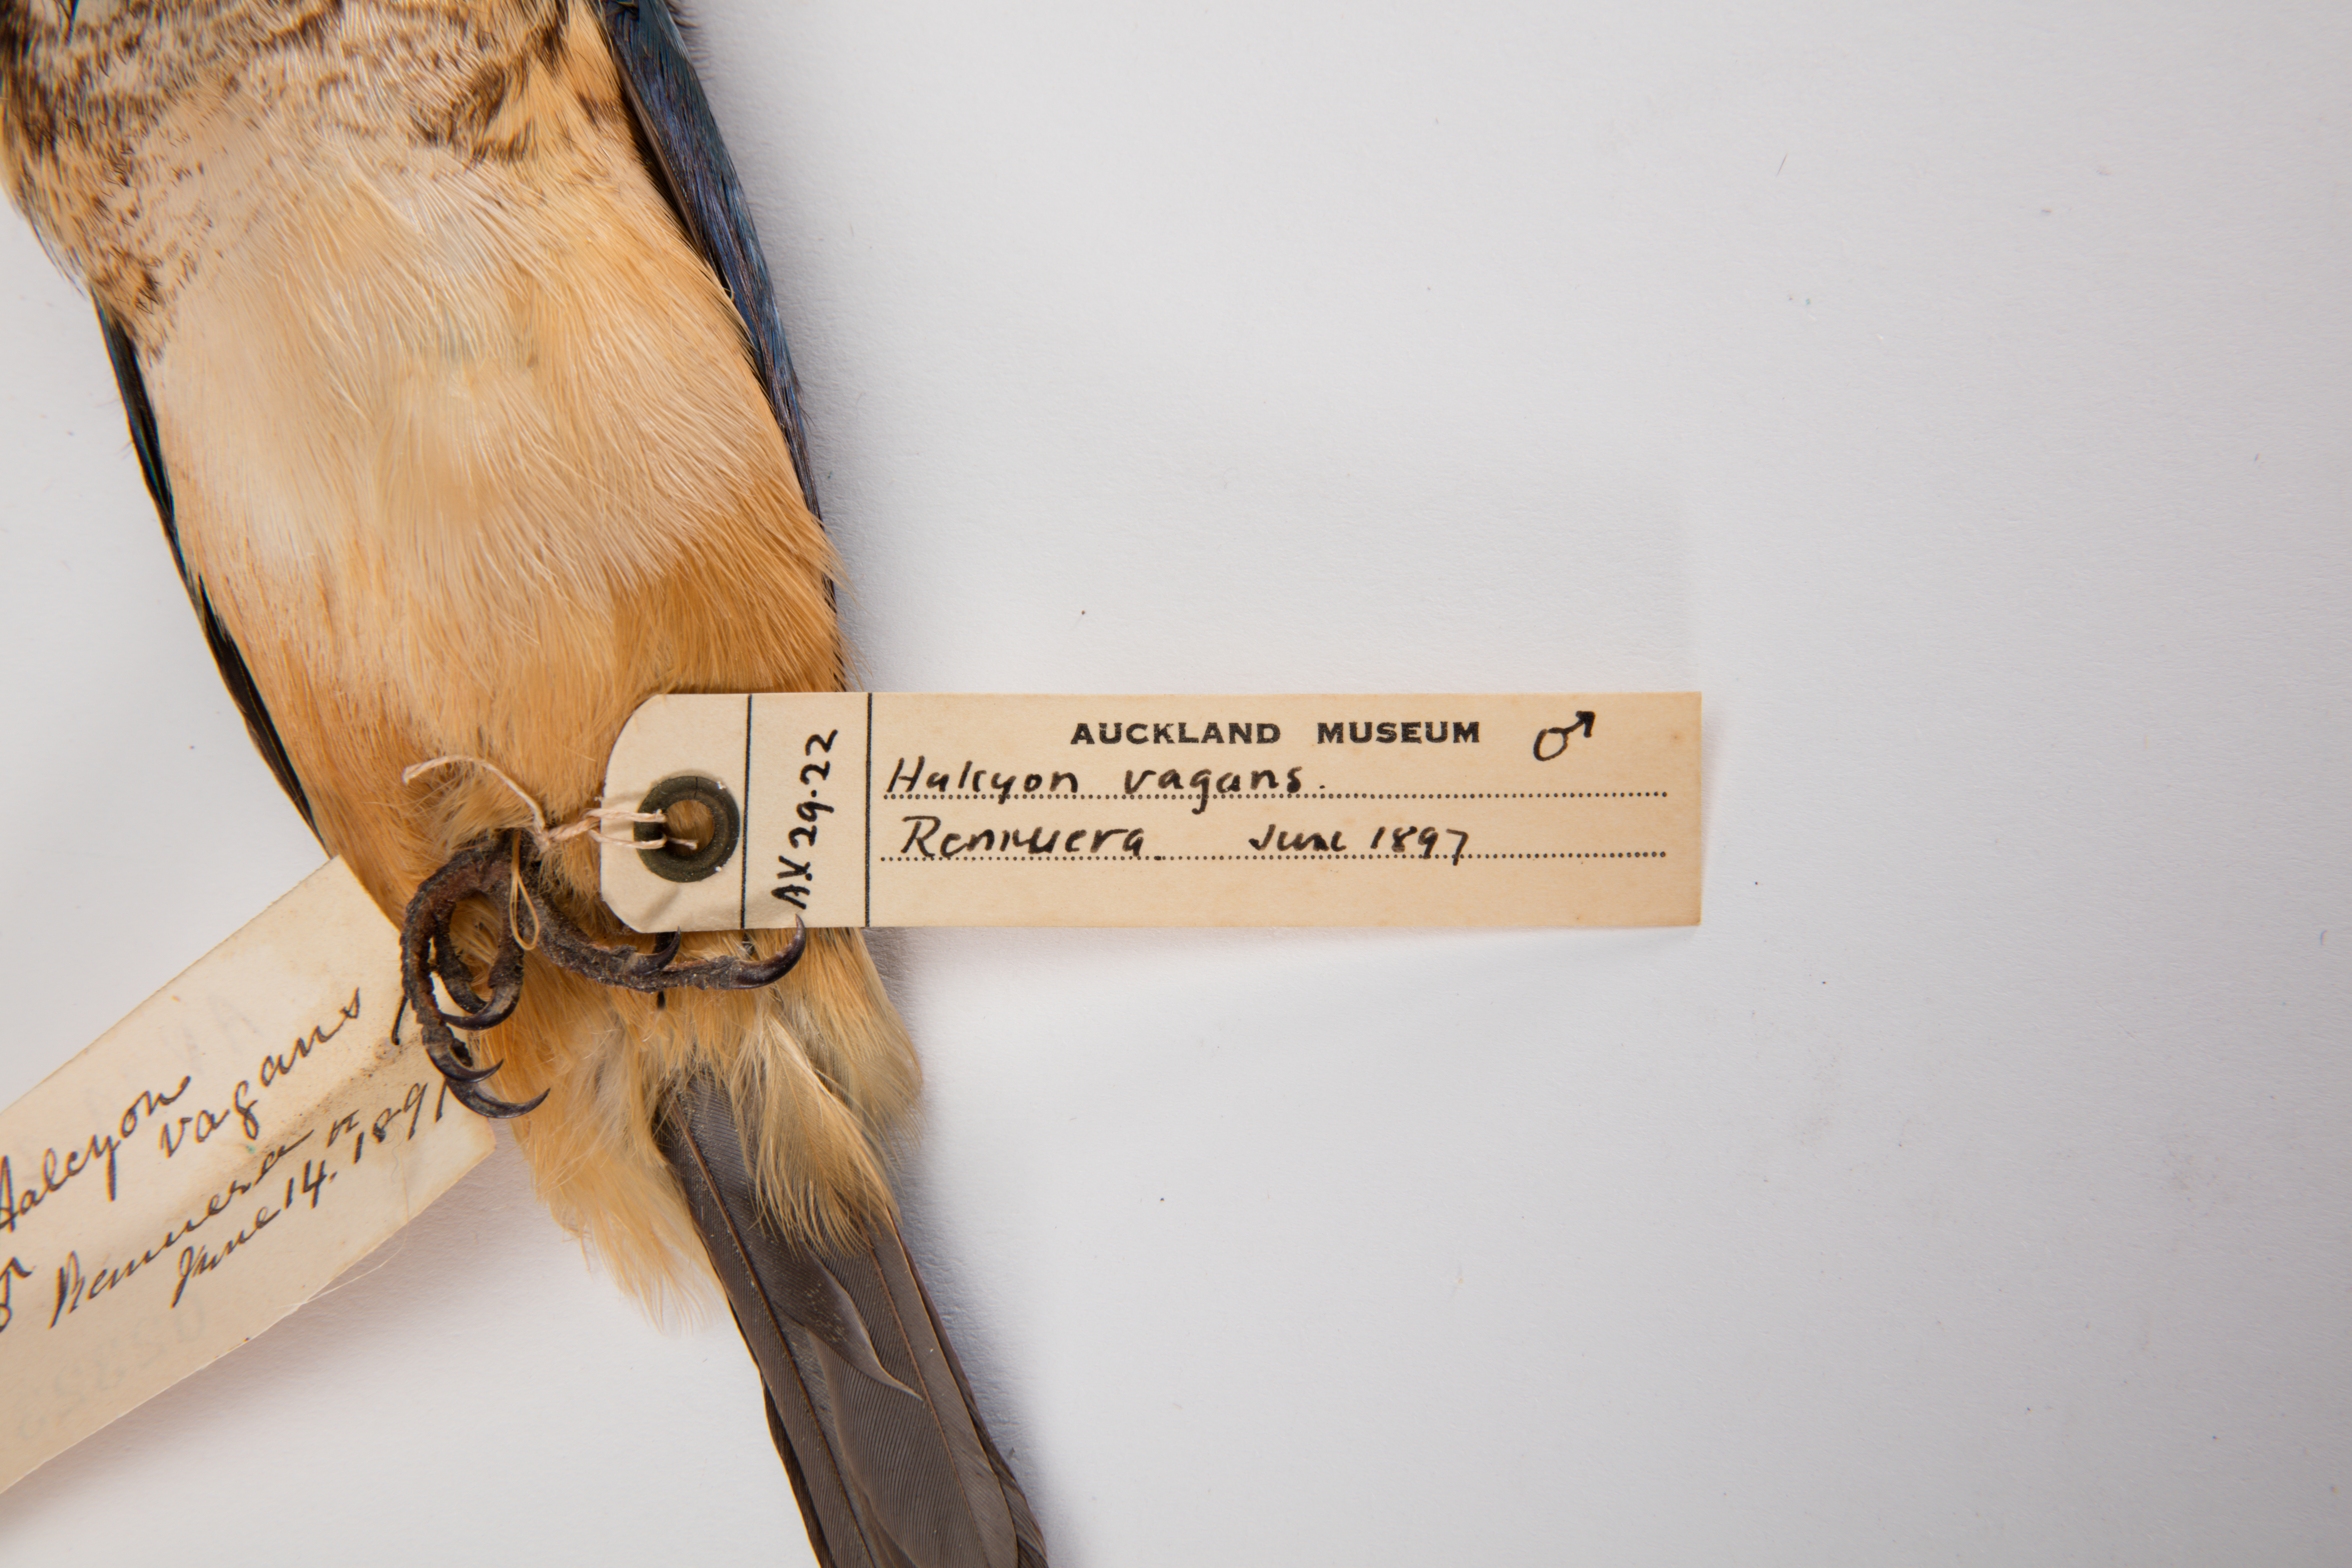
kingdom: Animalia
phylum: Chordata
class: Aves
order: Coraciiformes
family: Alcedinidae
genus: Todiramphus
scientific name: Todiramphus sanctus
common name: Sacred kingfisher
